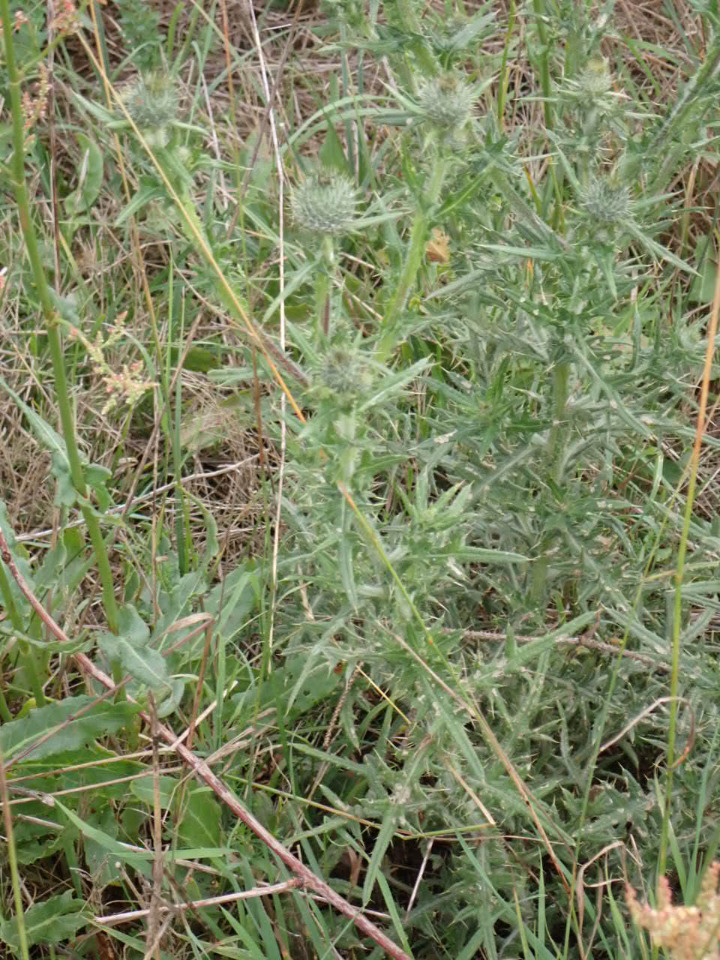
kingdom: Plantae
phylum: Tracheophyta
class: Magnoliopsida
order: Asterales
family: Asteraceae
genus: Cirsium
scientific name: Cirsium vulgare
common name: Horse-tidsel
